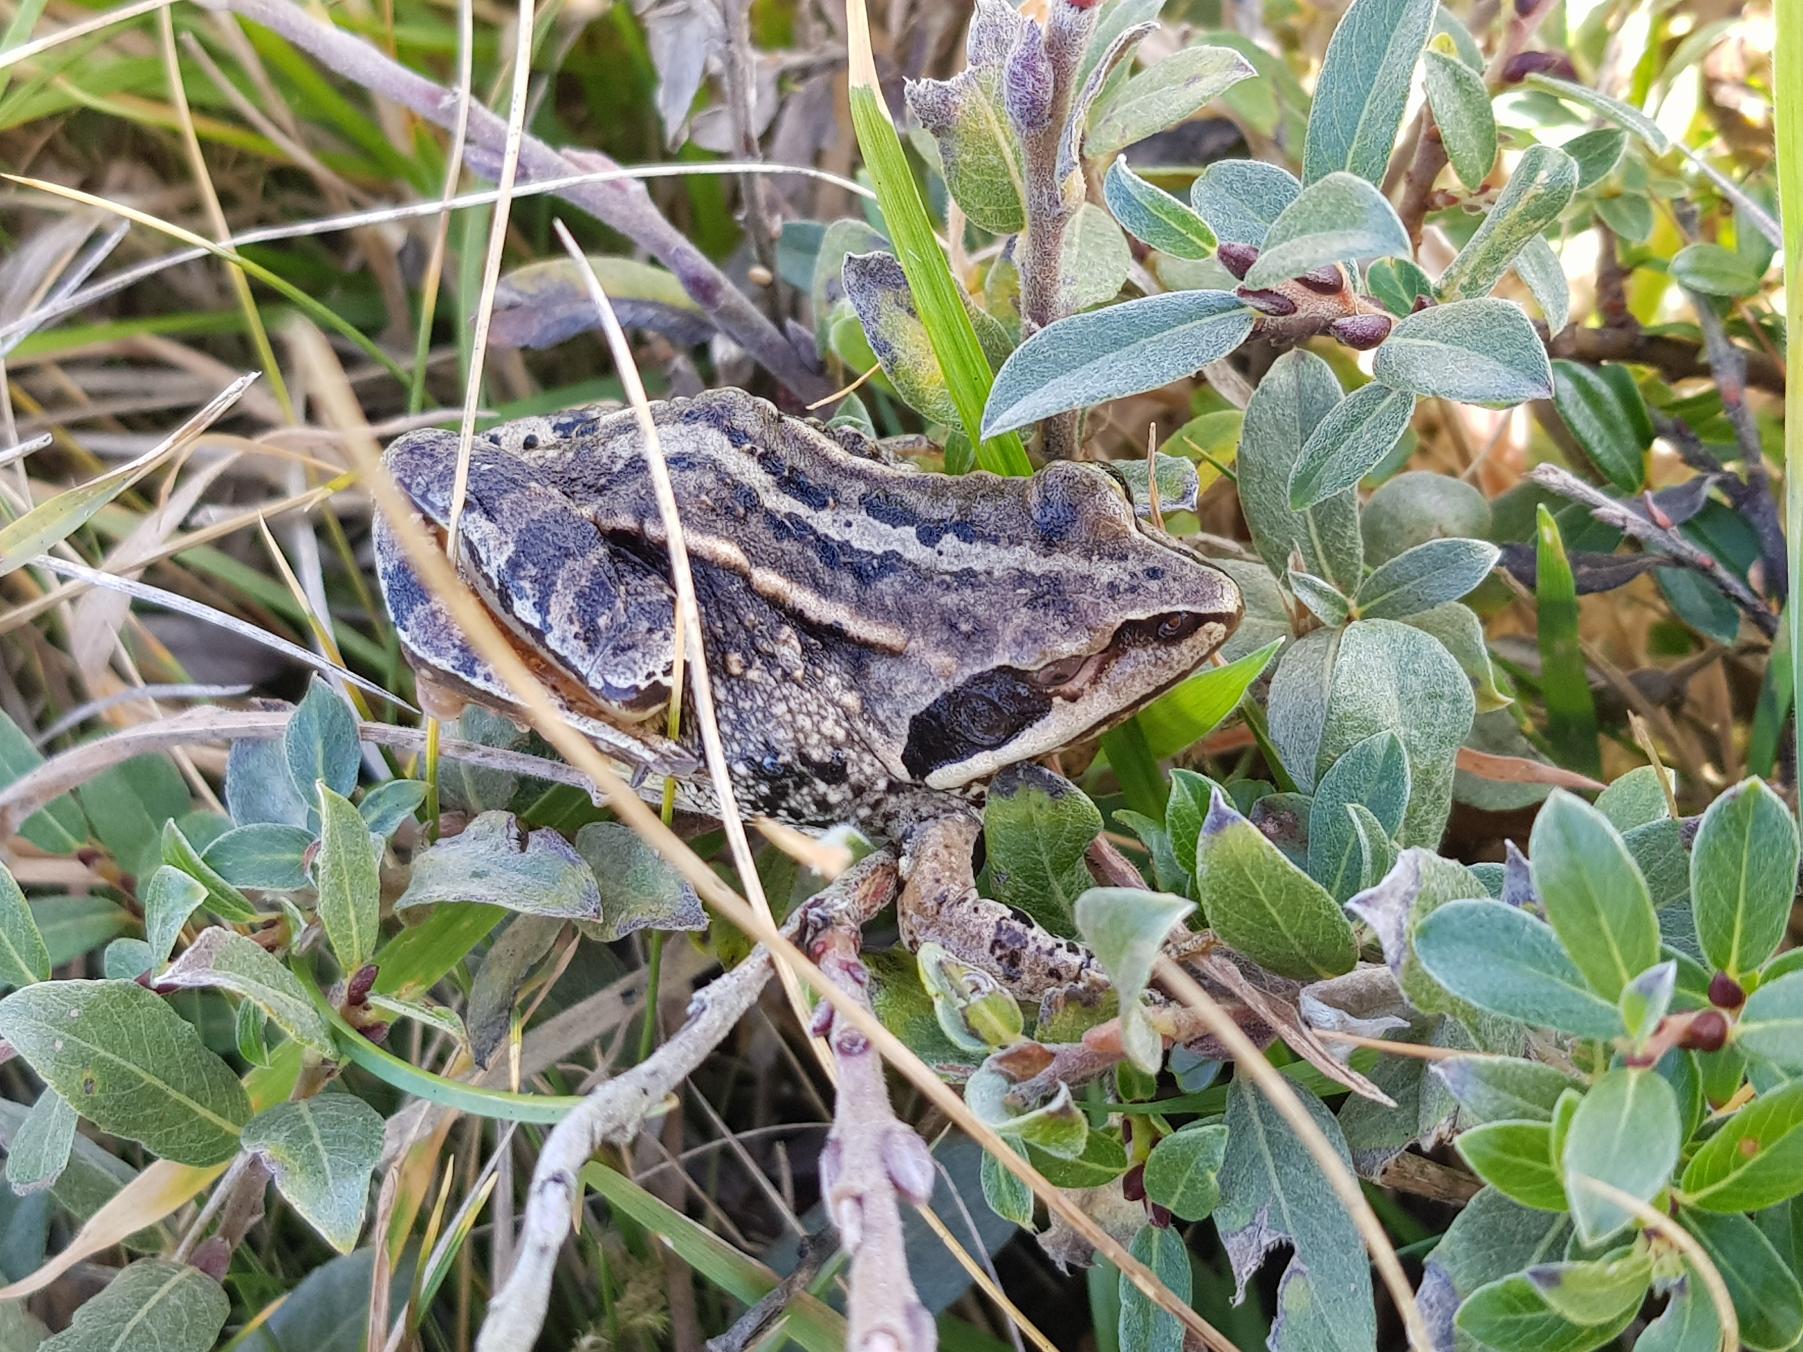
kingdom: Animalia
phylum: Chordata
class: Amphibia
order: Anura
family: Ranidae
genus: Rana
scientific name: Rana arvalis
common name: Spidssnudet frø
